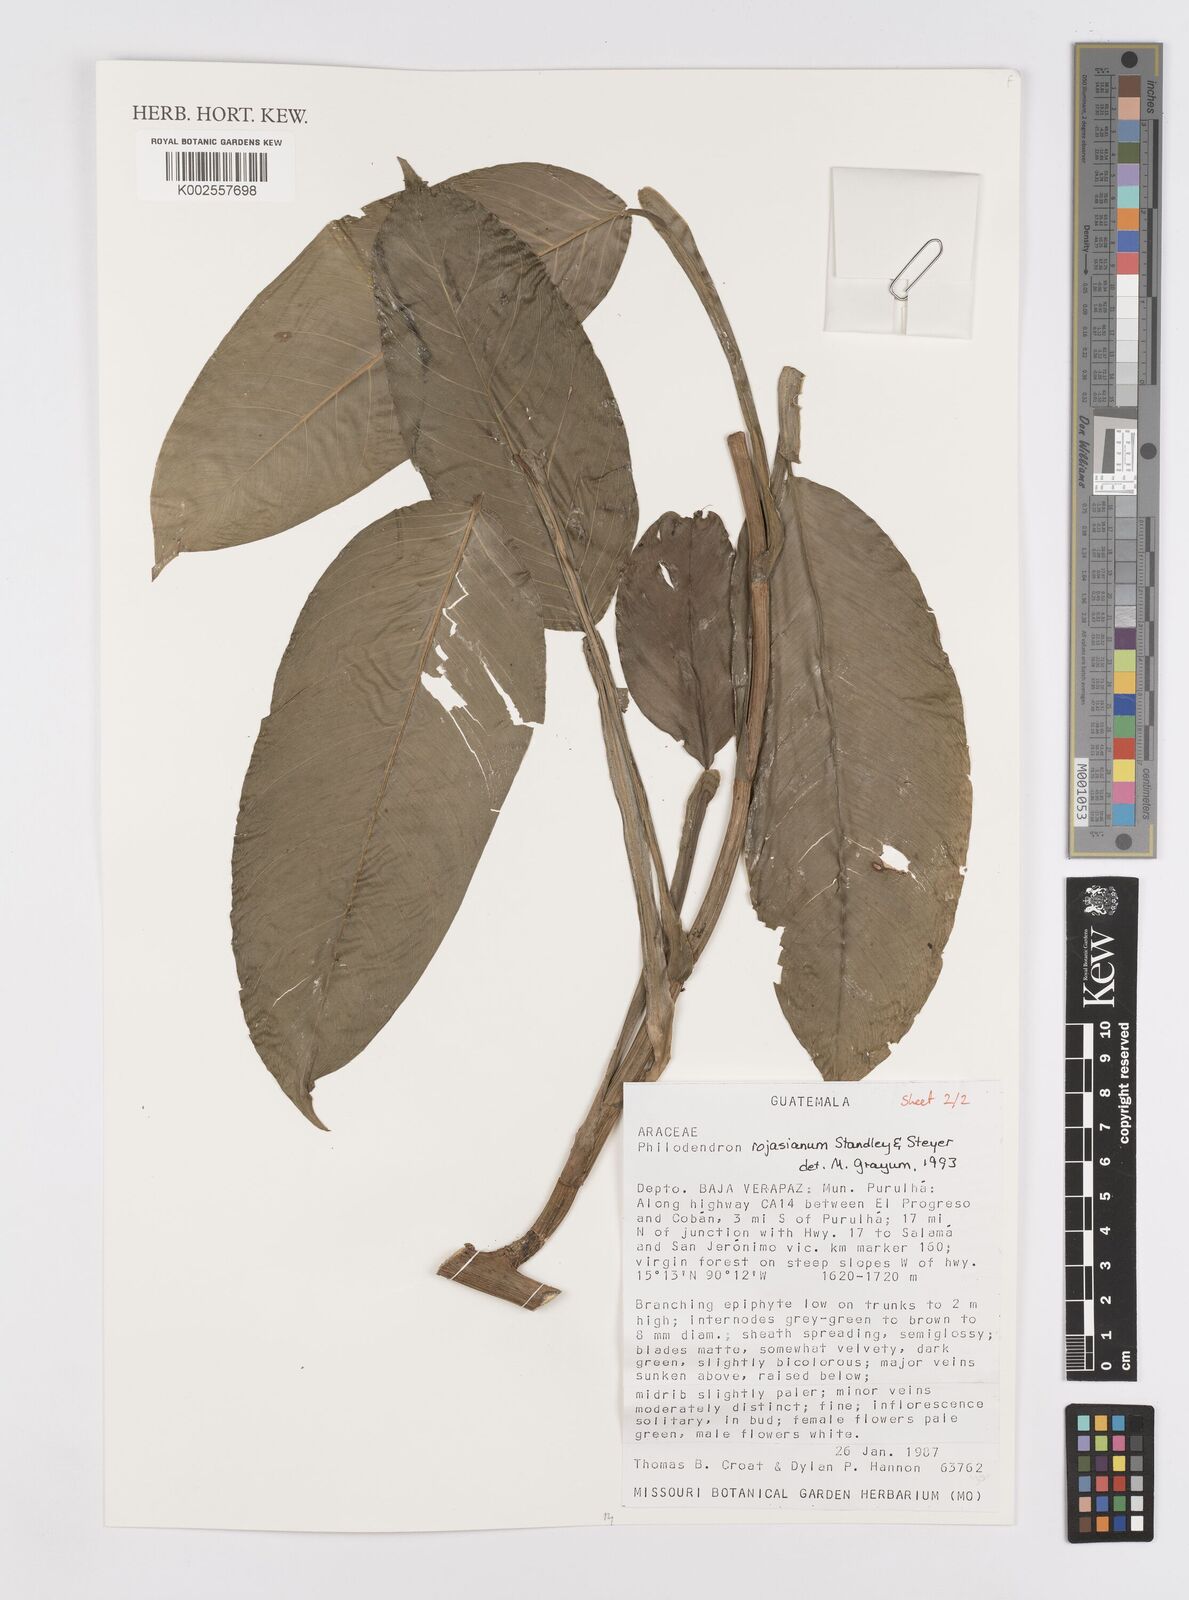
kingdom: Plantae
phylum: Tracheophyta
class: Liliopsida
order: Alismatales
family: Araceae
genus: Philodendron
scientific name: Philodendron rojasianum
